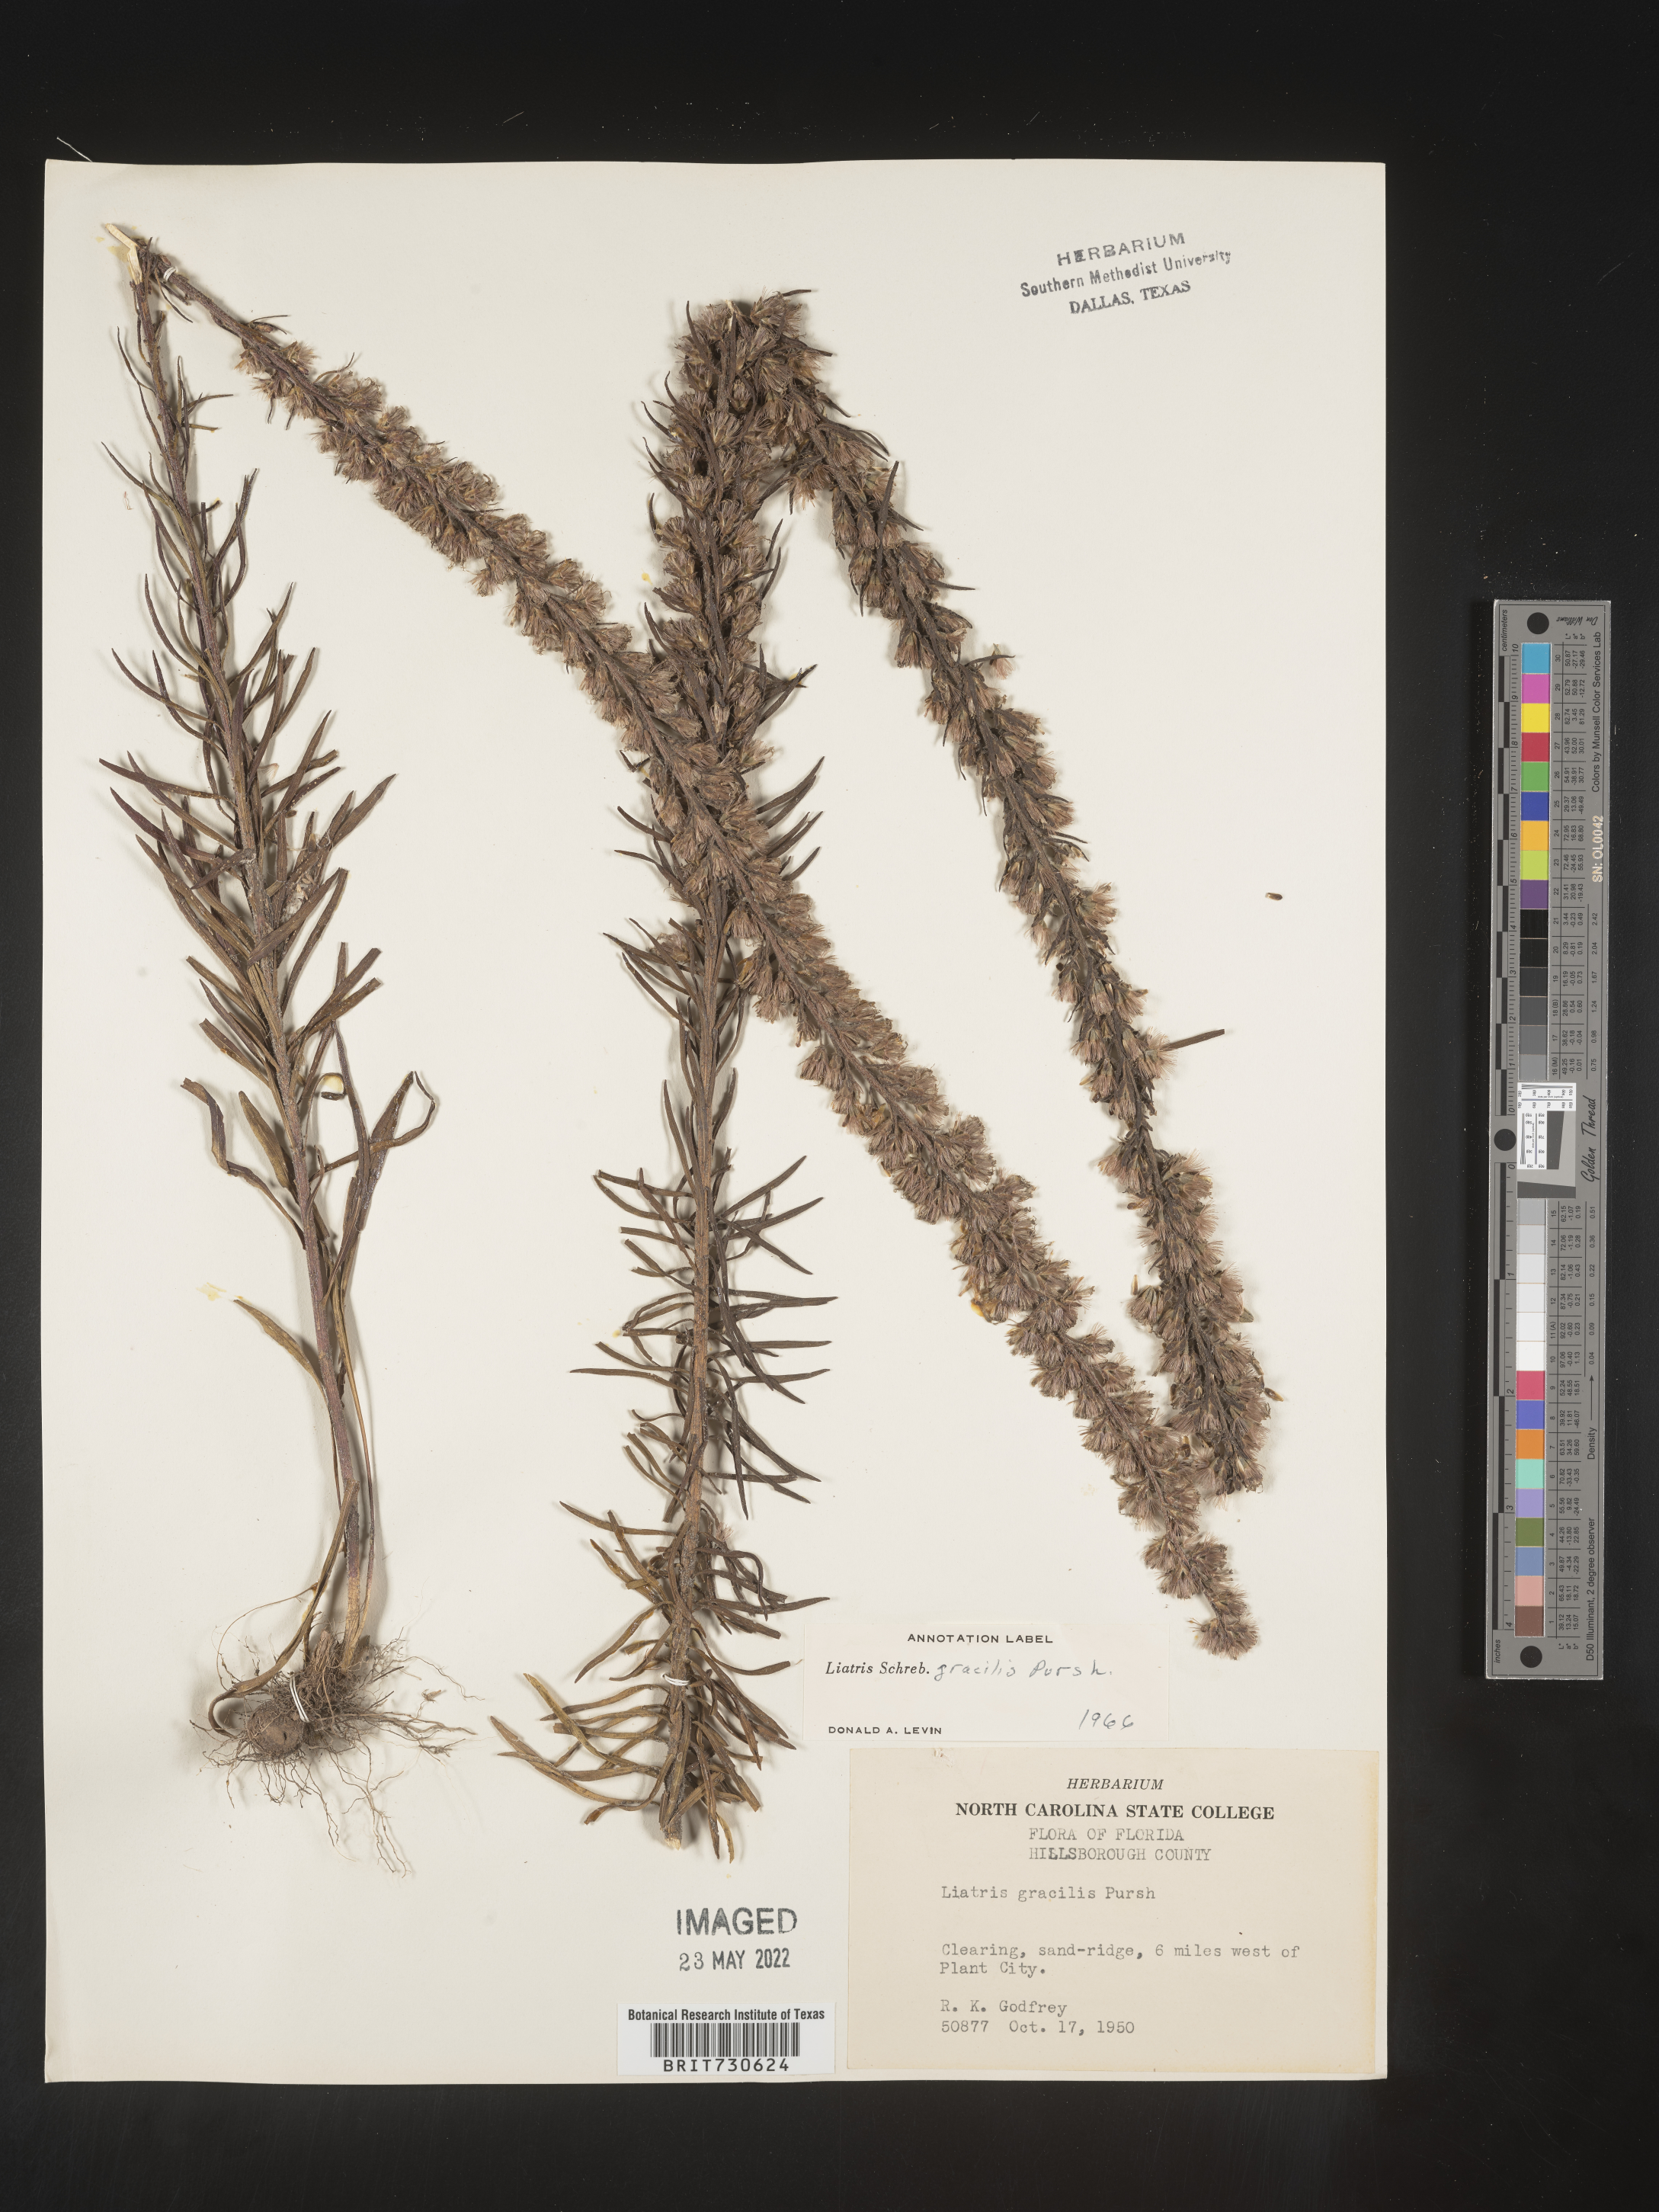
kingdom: Plantae
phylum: Tracheophyta
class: Magnoliopsida
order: Asterales
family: Asteraceae
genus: Liatris
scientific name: Liatris gracilis
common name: Slender gayfeather
